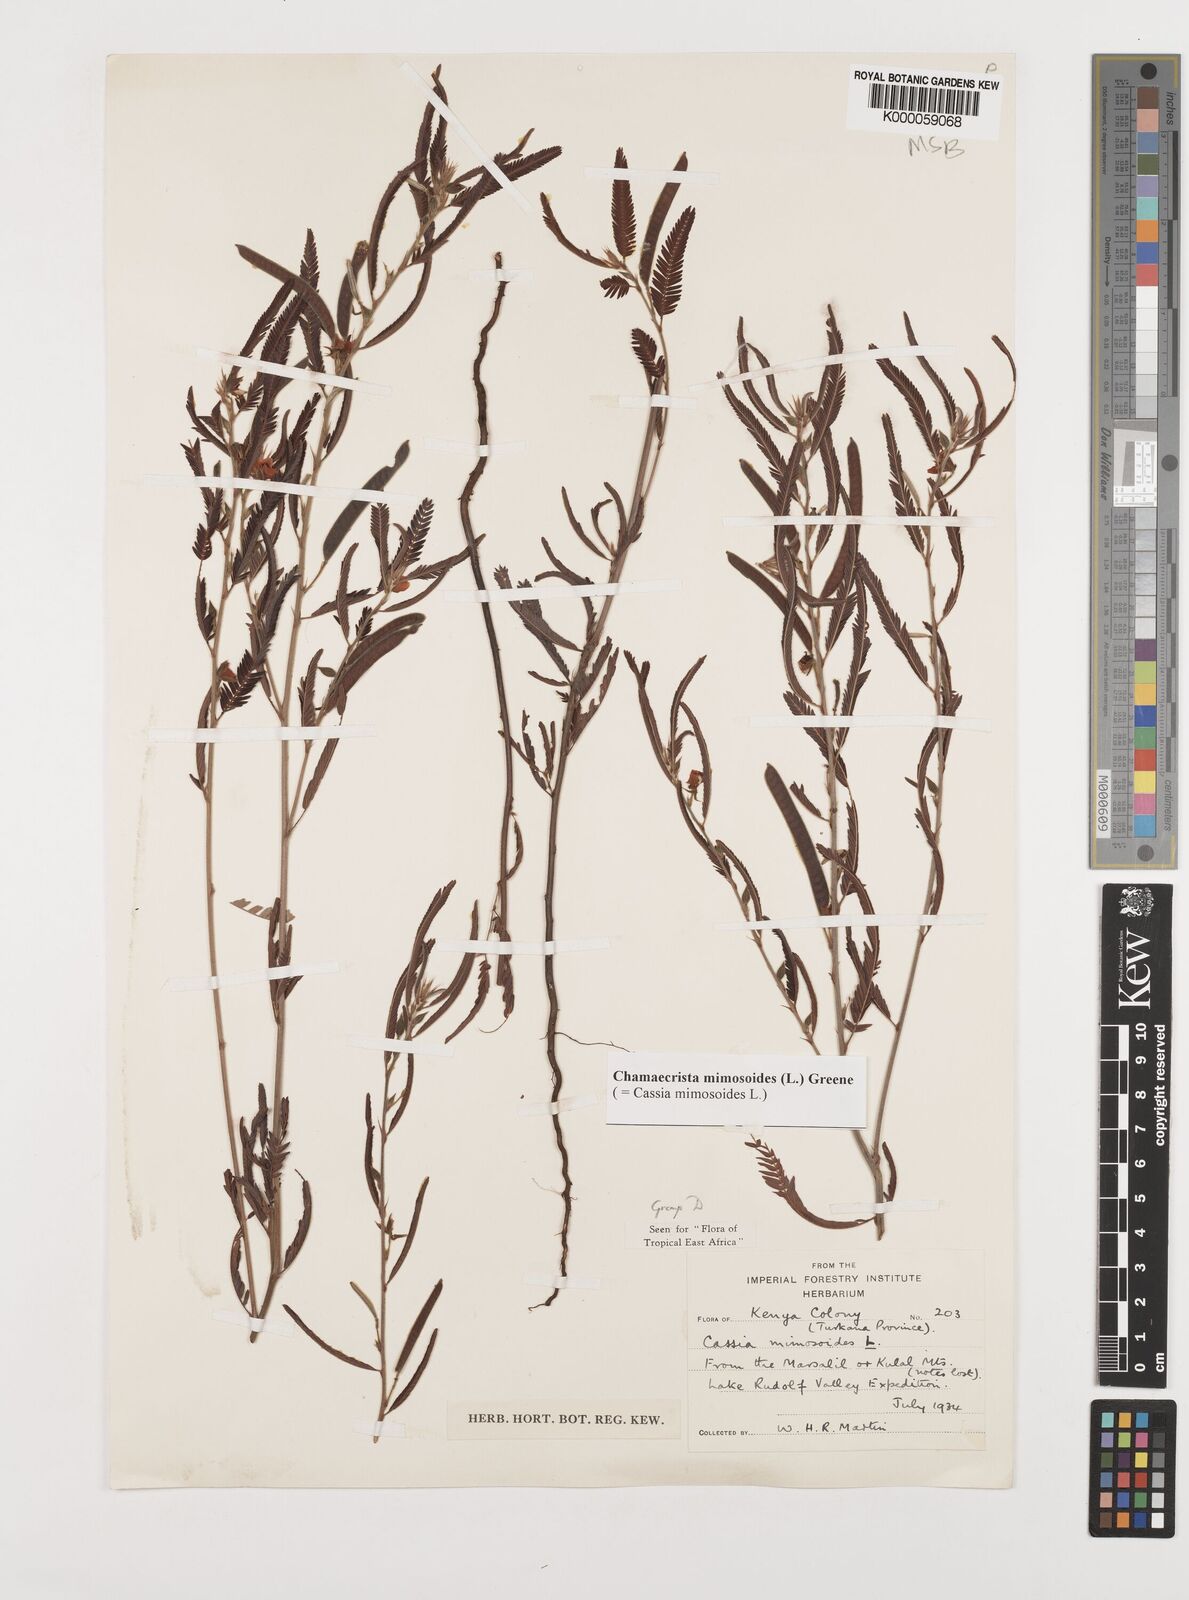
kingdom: Plantae
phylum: Tracheophyta
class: Magnoliopsida
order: Fabales
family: Fabaceae
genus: Chamaecrista
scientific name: Chamaecrista mimosoides
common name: Fish-bone cassia
